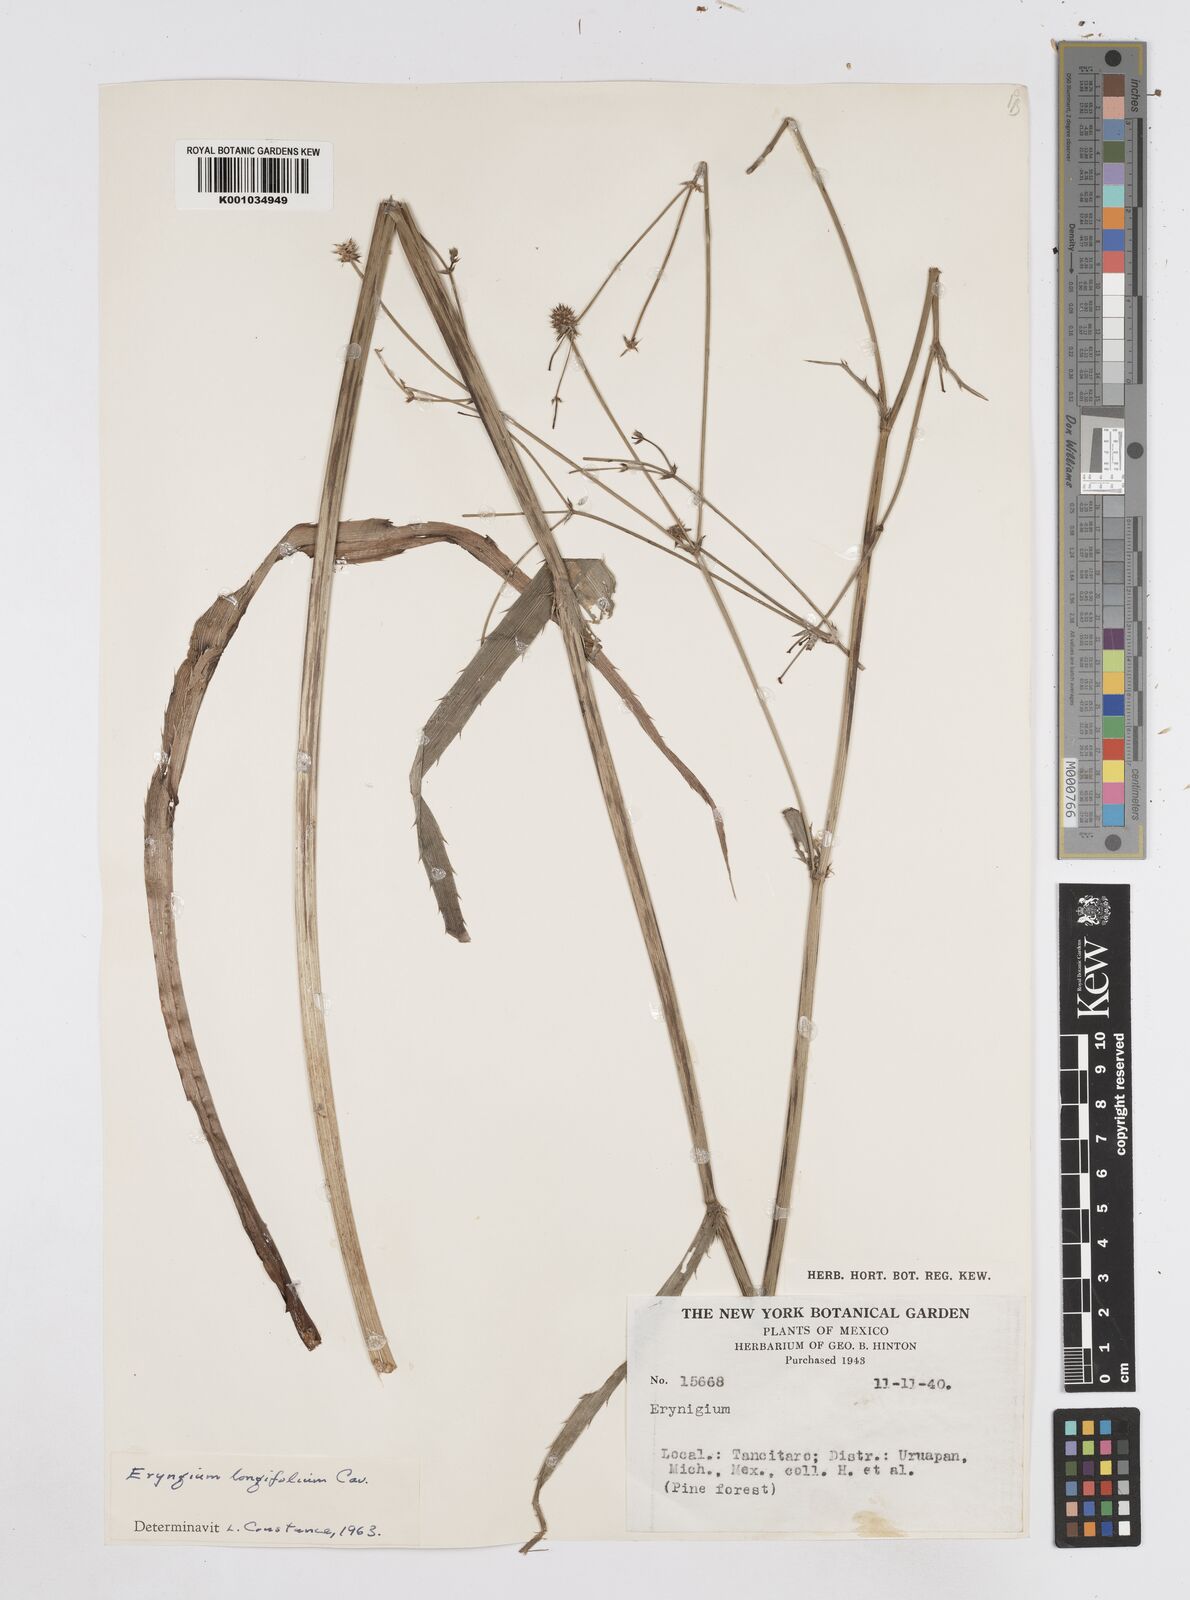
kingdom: Plantae
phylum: Tracheophyta
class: Magnoliopsida
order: Apiales
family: Apiaceae
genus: Eryngium
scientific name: Eryngium longifolium
